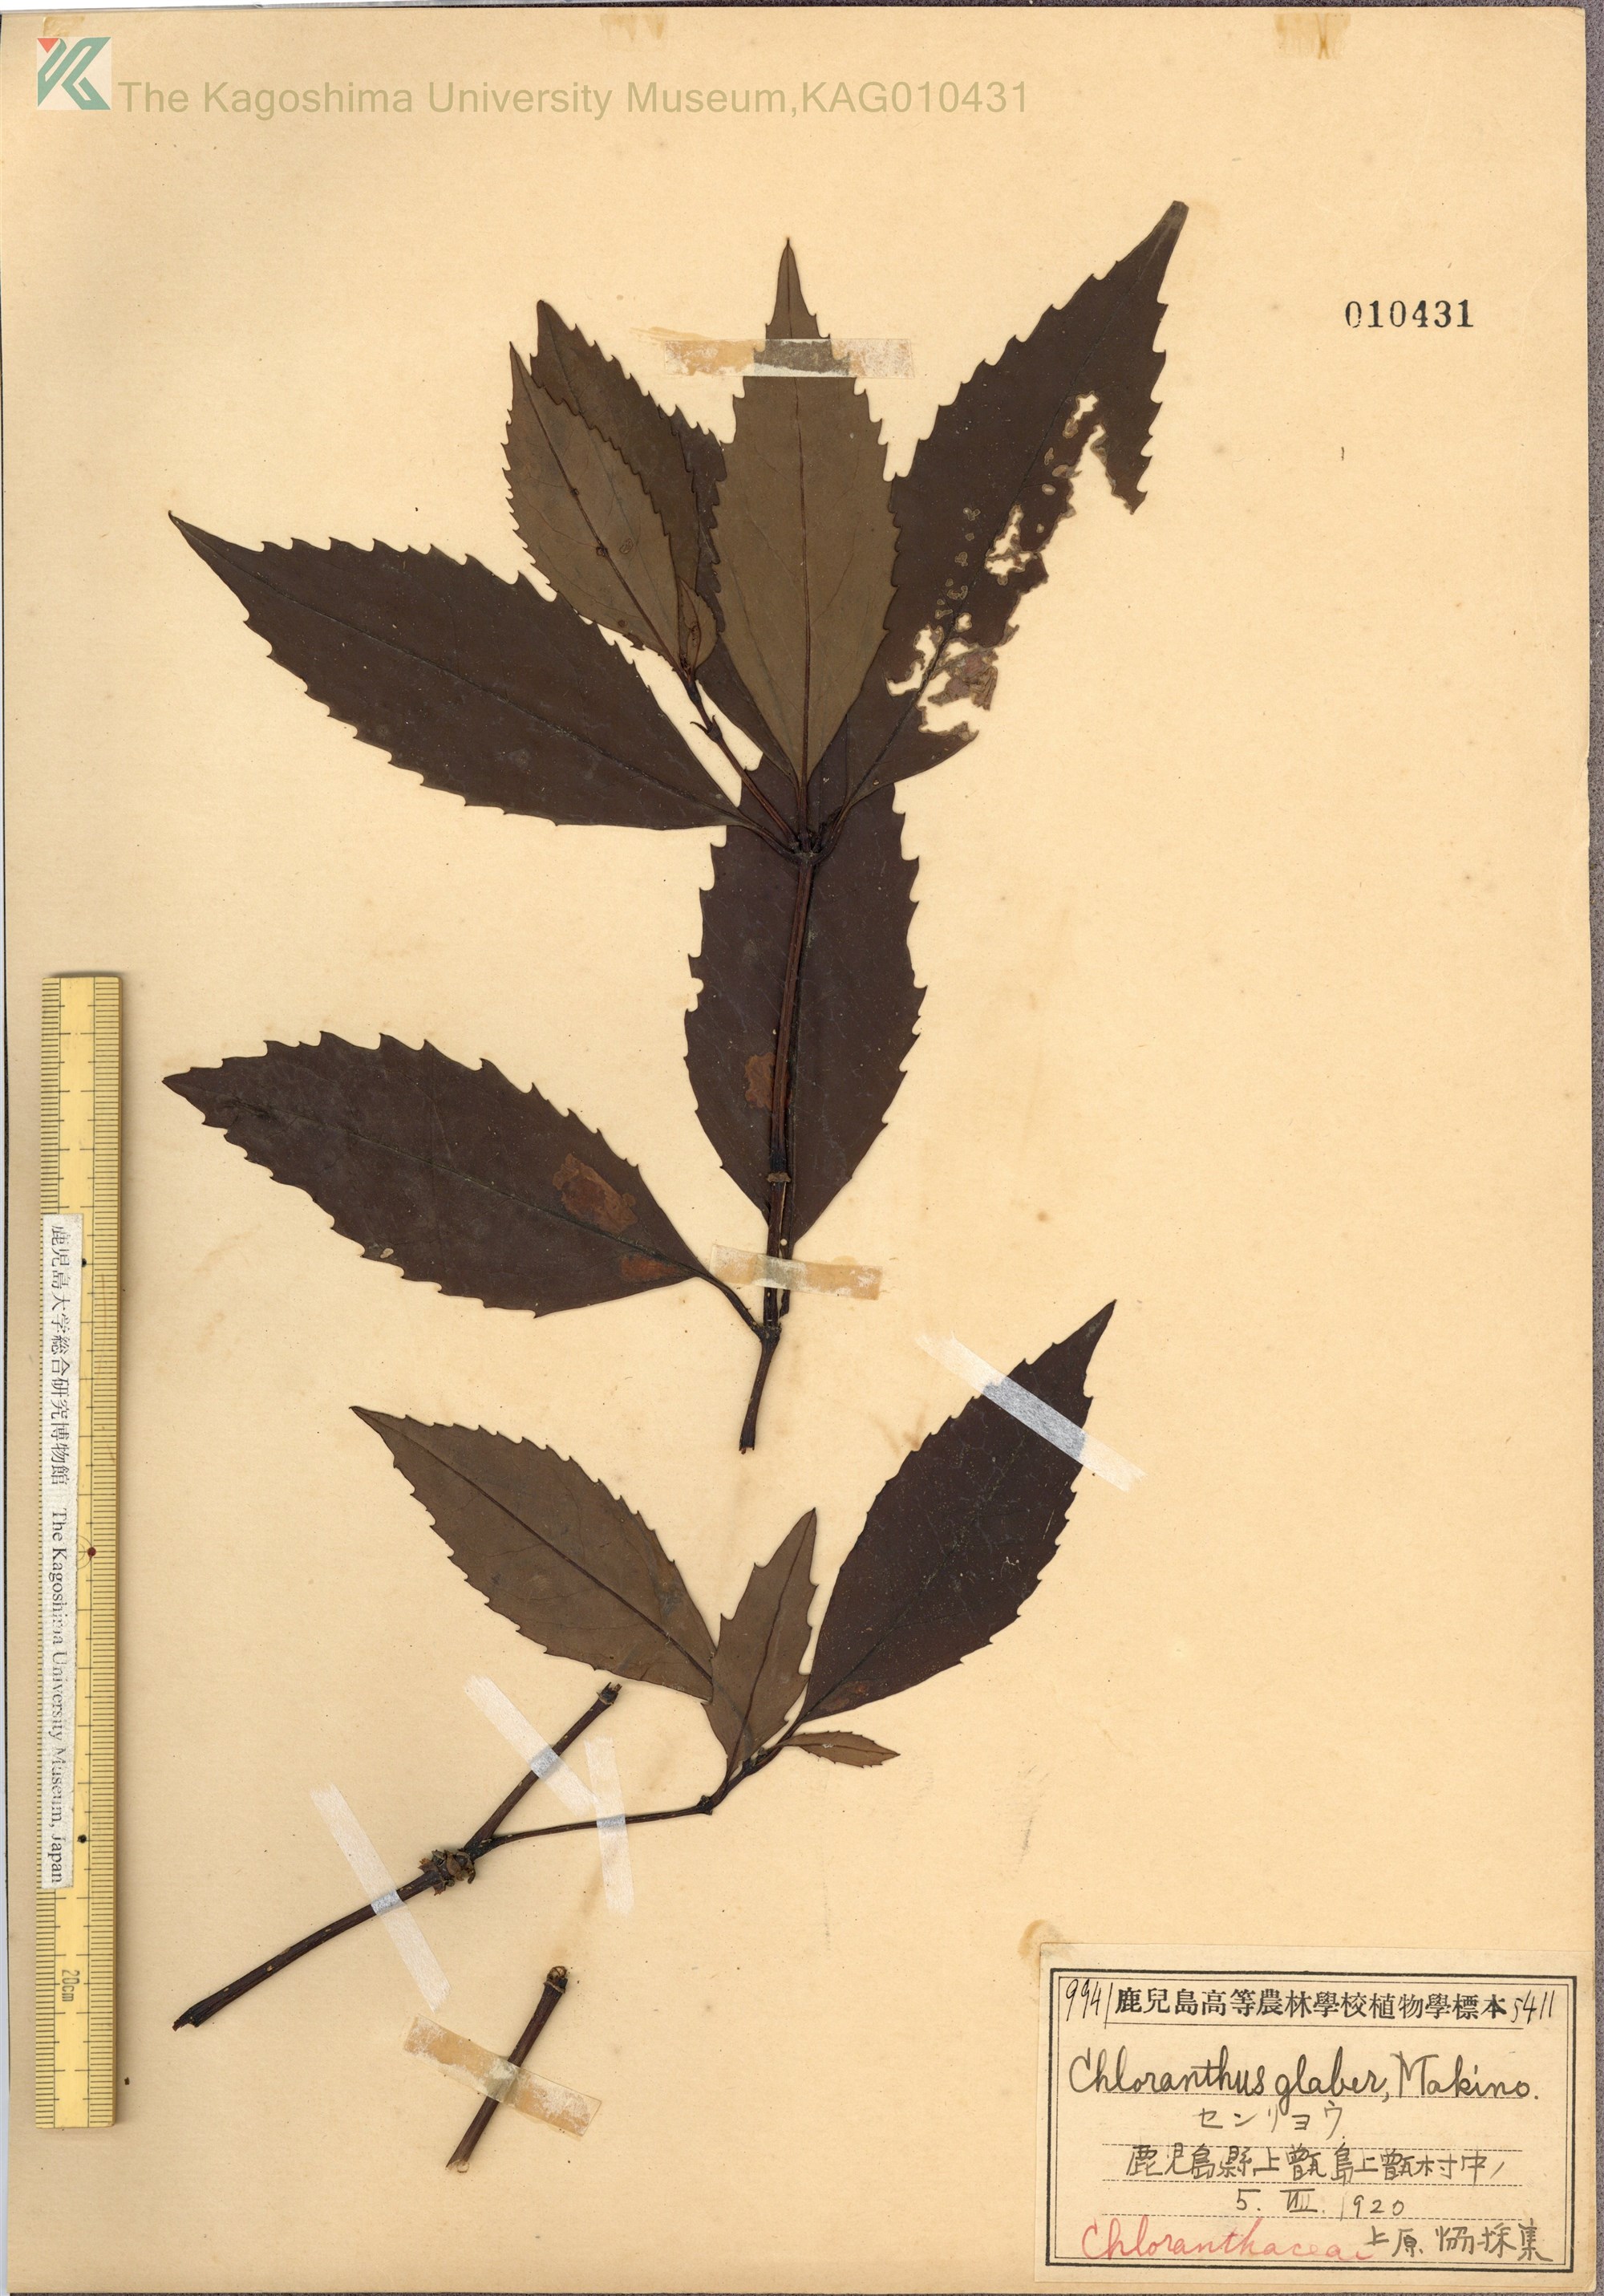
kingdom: Plantae
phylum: Tracheophyta
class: Magnoliopsida
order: Chloranthales
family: Chloranthaceae
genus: Sarcandra
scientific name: Sarcandra glabra
